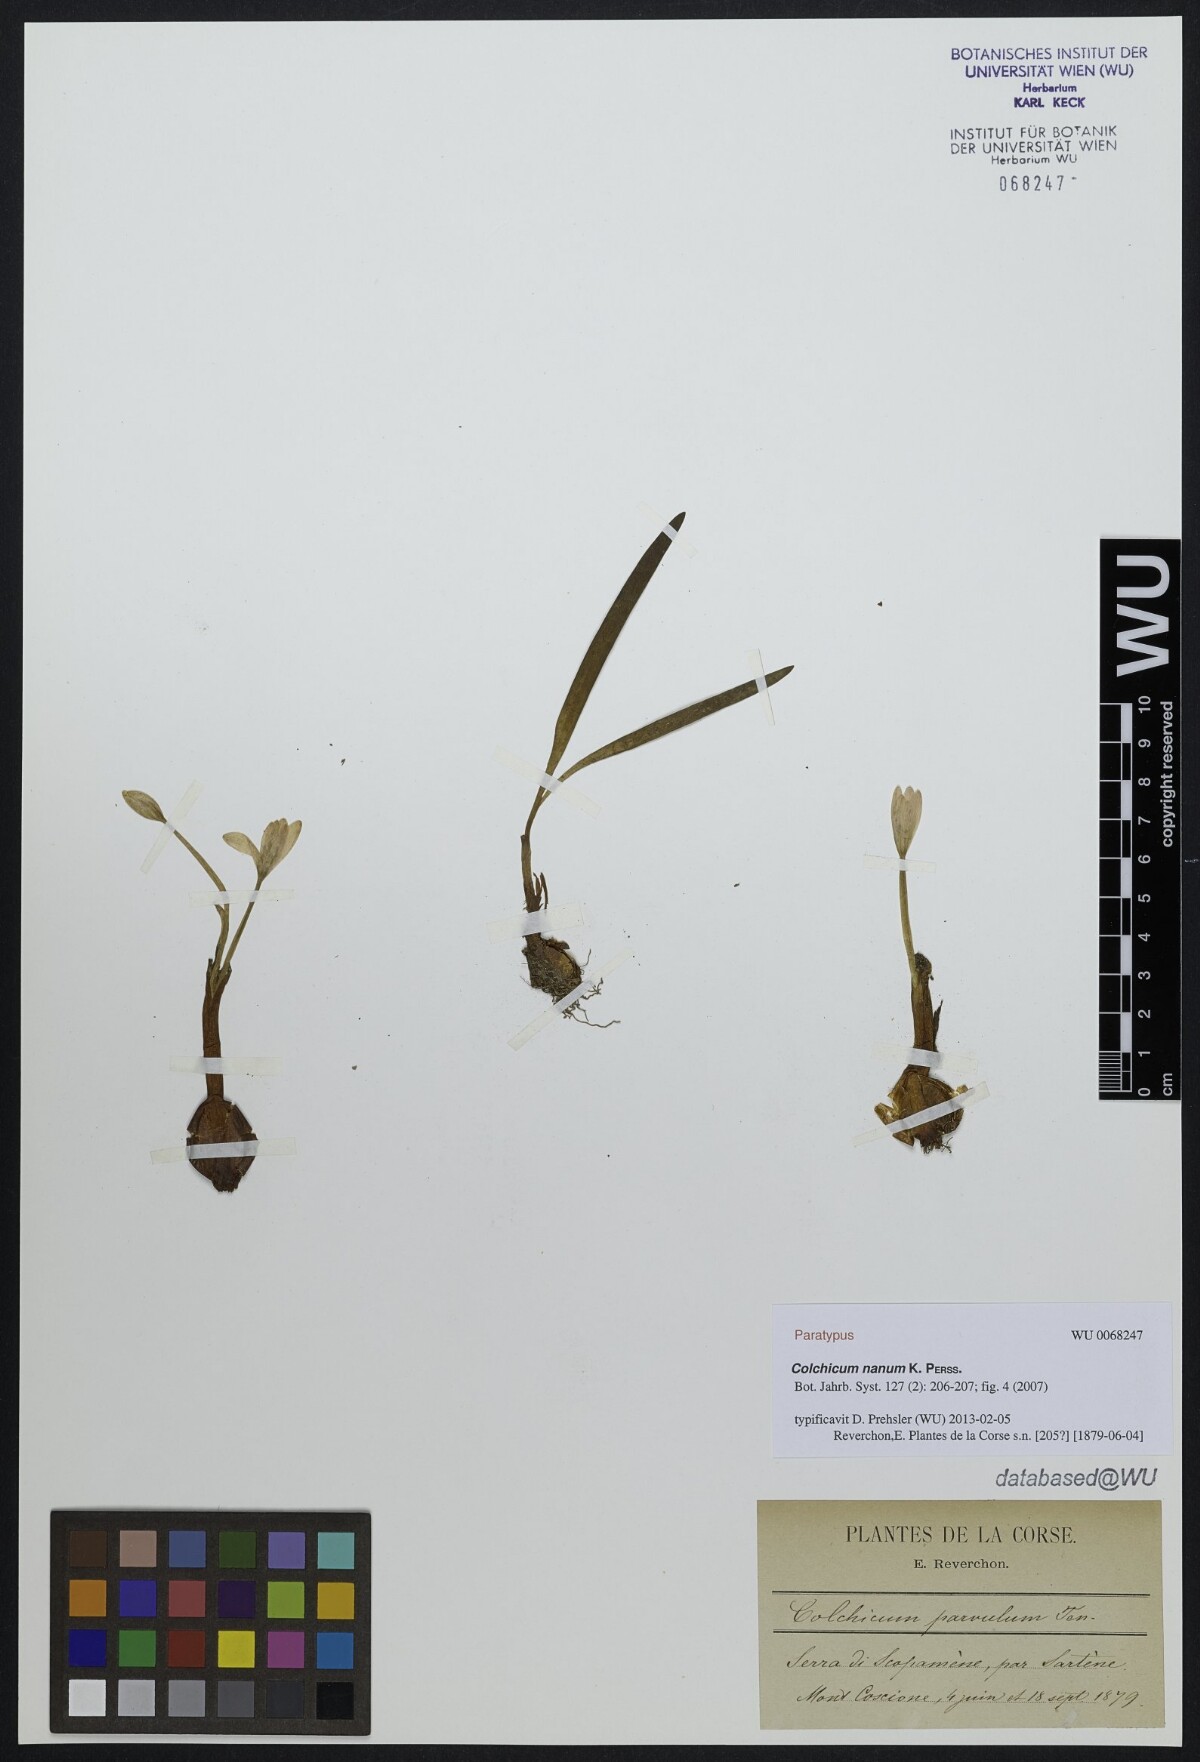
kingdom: Plantae
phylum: Tracheophyta
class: Liliopsida
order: Liliales
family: Colchicaceae
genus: Colchicum
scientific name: Colchicum nanum
